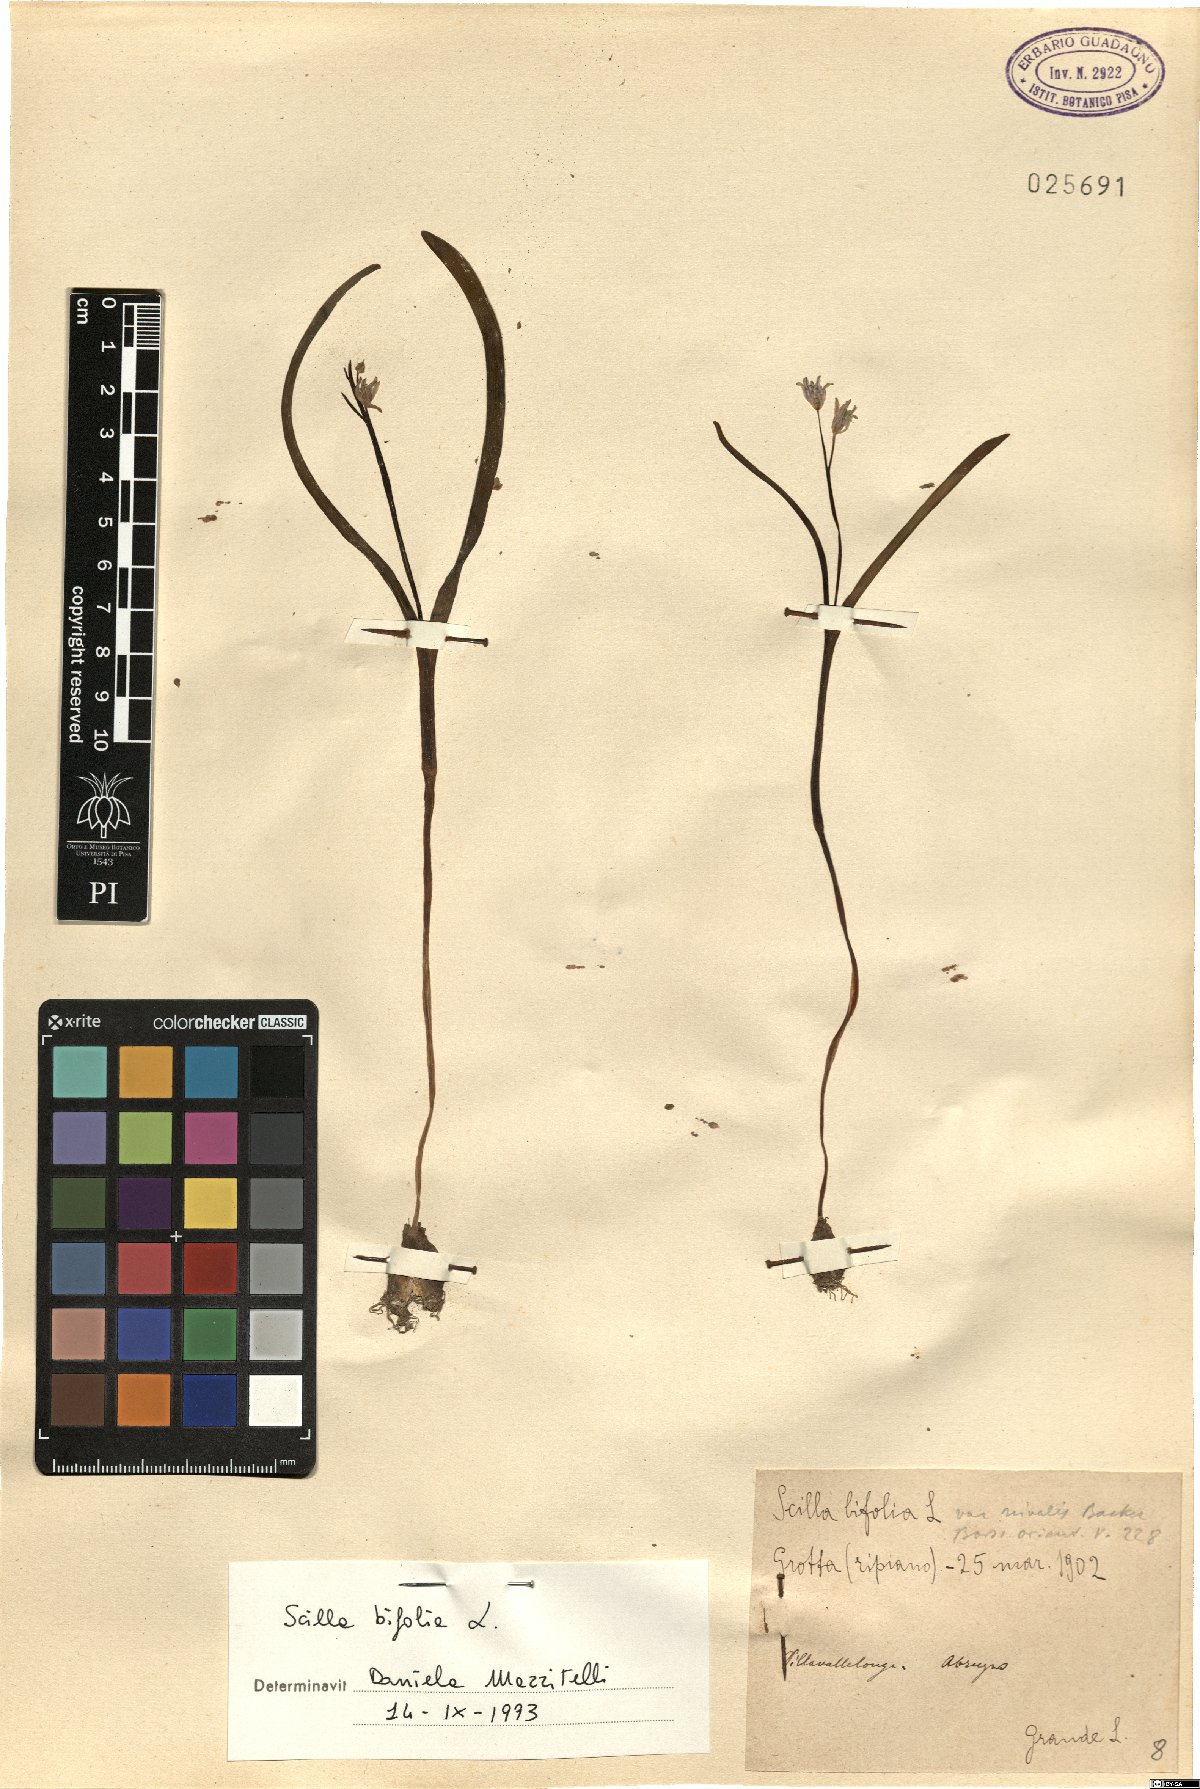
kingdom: Plantae
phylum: Tracheophyta
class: Liliopsida
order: Asparagales
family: Asparagaceae
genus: Scilla
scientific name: Scilla bifolia
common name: Alpine squill
